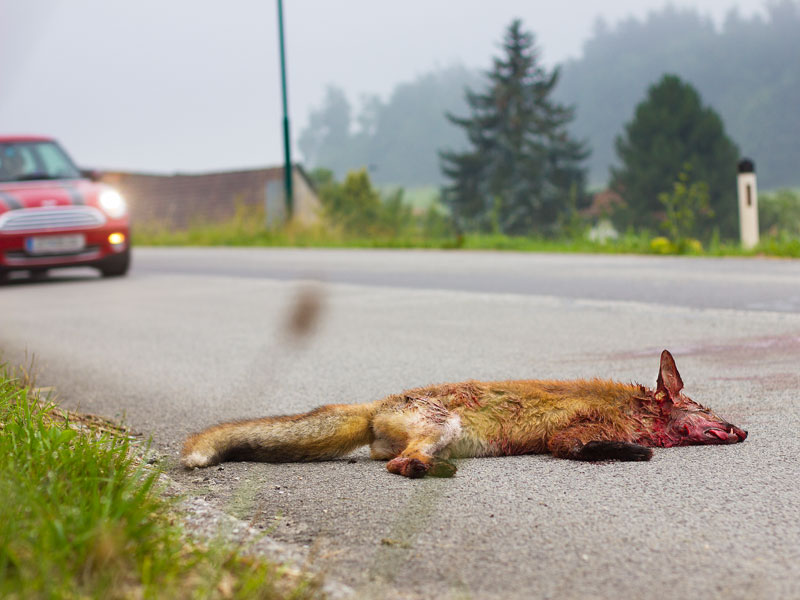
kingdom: Animalia
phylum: Chordata
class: Mammalia
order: Carnivora
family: Canidae
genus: Vulpes
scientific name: Vulpes vulpes
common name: Red fox
